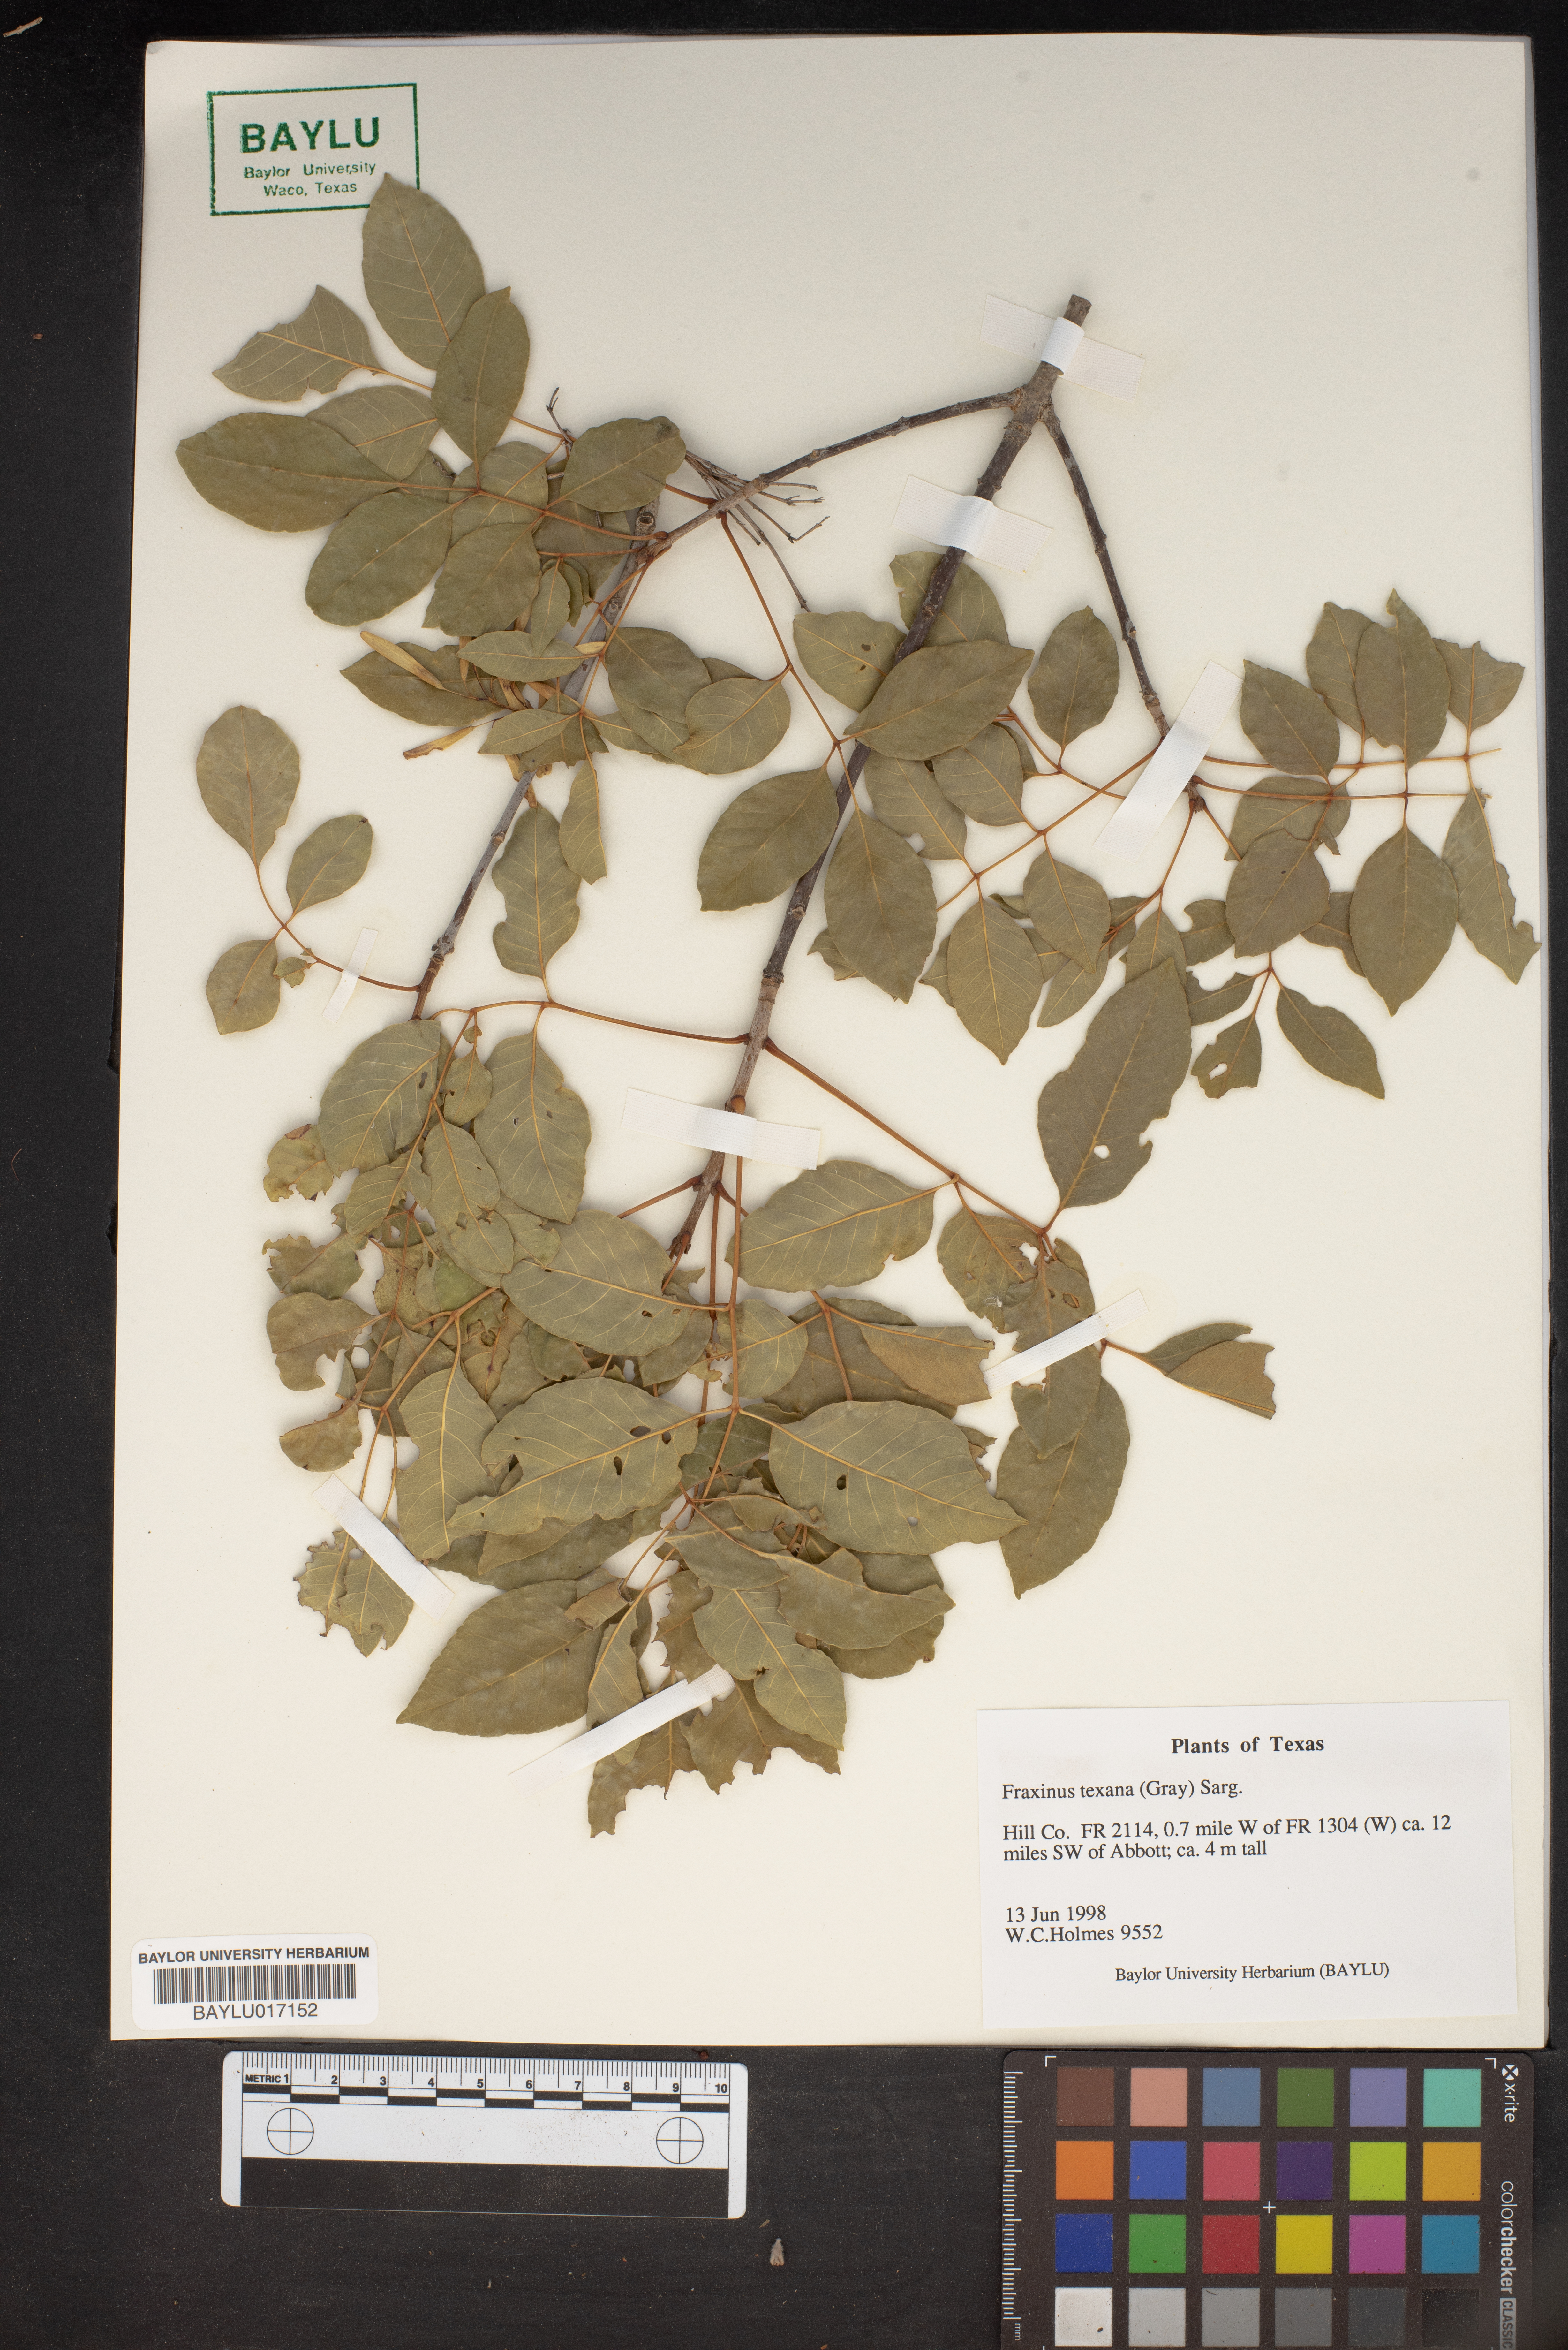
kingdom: Plantae
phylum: Tracheophyta
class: Magnoliopsida
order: Lamiales
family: Oleaceae
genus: Fraxinus
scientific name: Fraxinus albicans
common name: Texas ash
